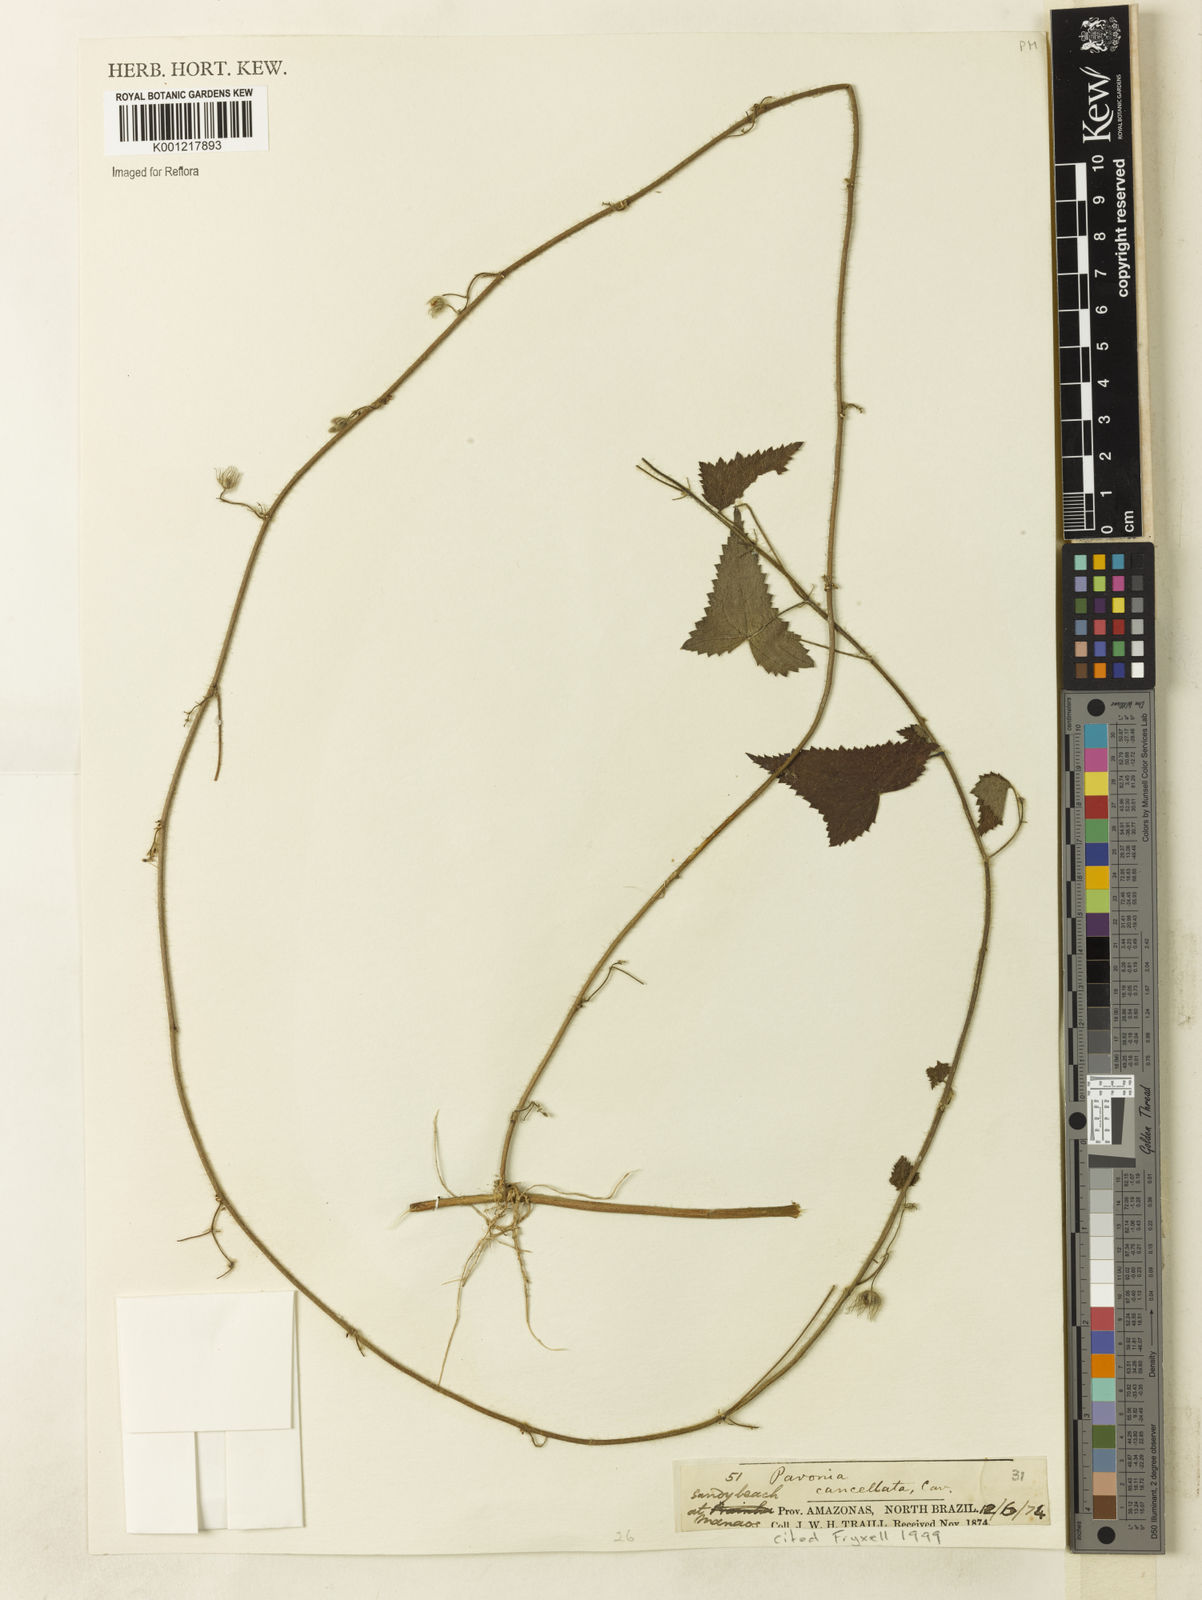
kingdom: Plantae
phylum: Tracheophyta
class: Magnoliopsida
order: Malvales
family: Malvaceae
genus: Pavonia
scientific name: Pavonia cancellata
